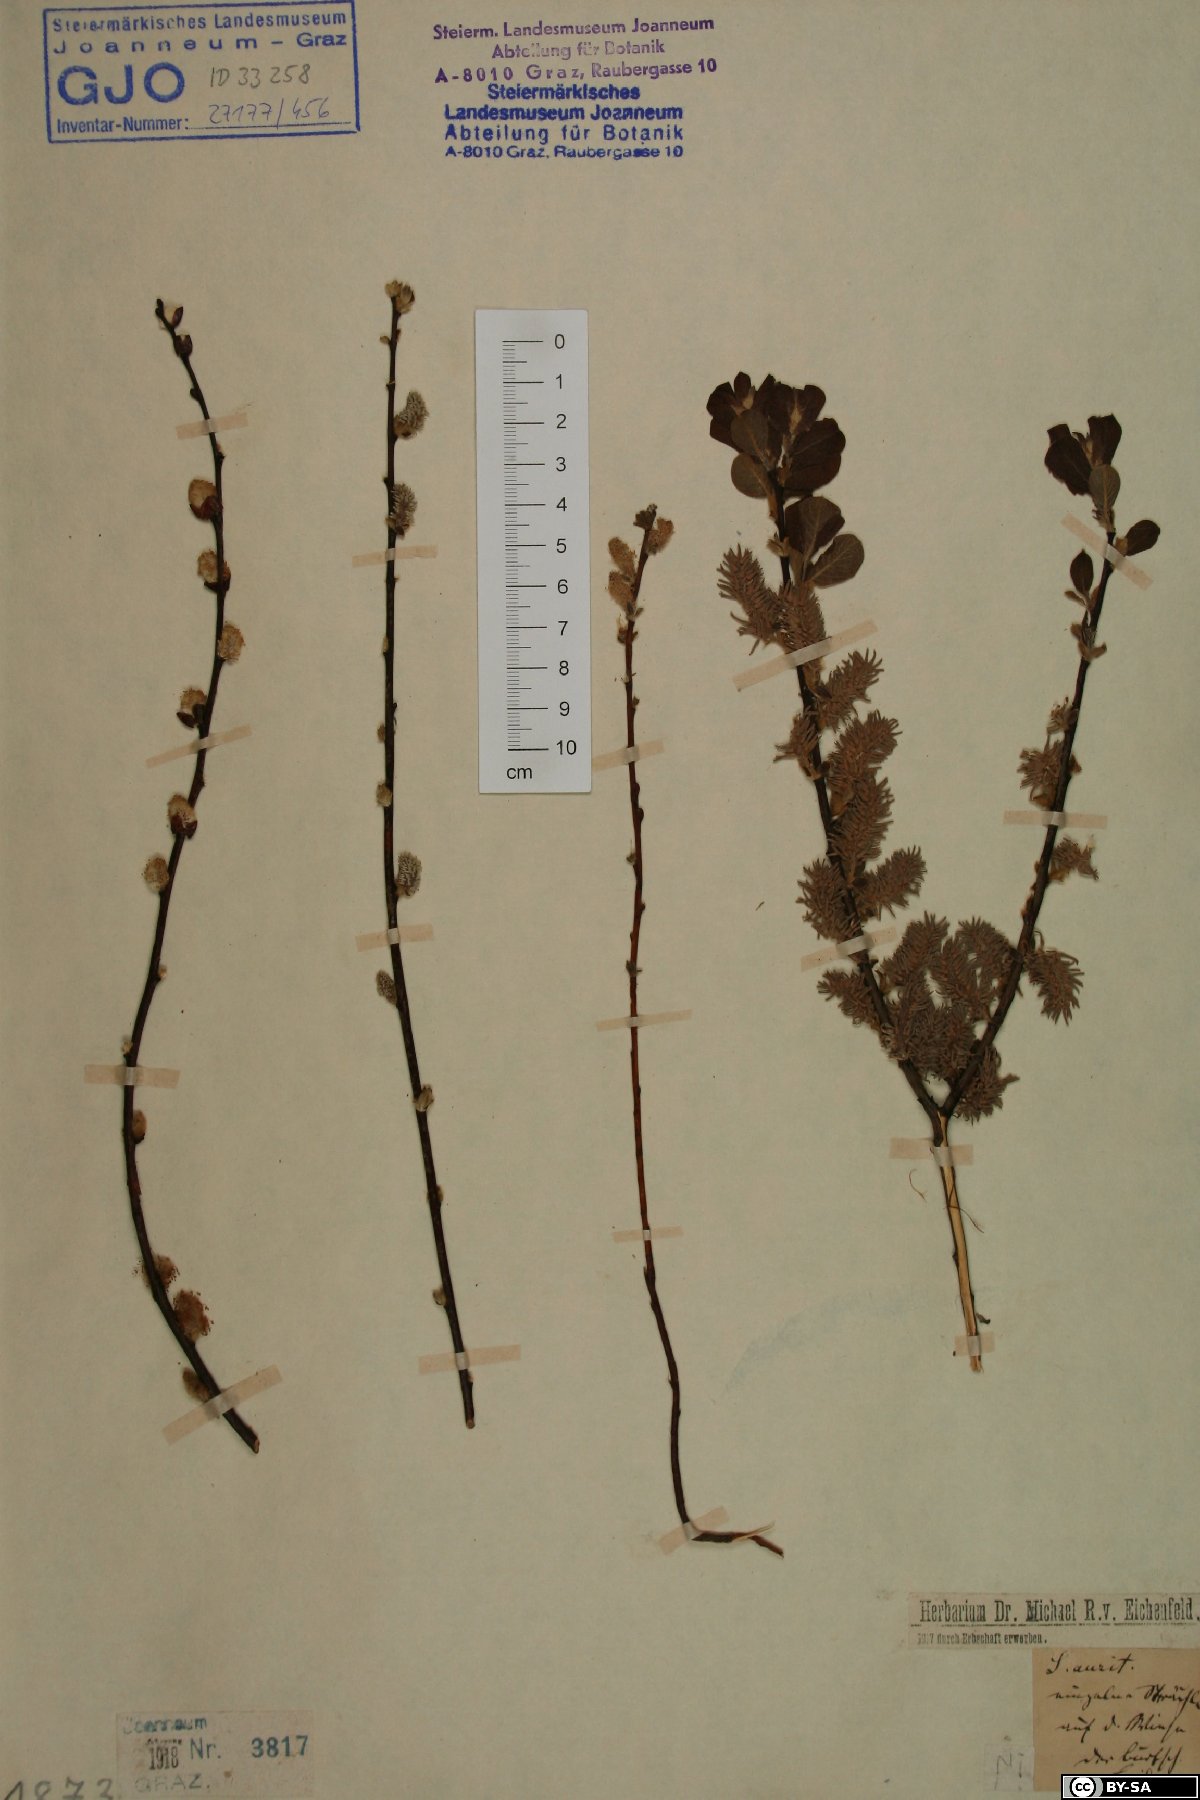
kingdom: Plantae
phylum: Tracheophyta
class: Magnoliopsida
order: Malpighiales
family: Salicaceae
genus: Salix
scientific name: Salix aurita
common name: Eared willow
